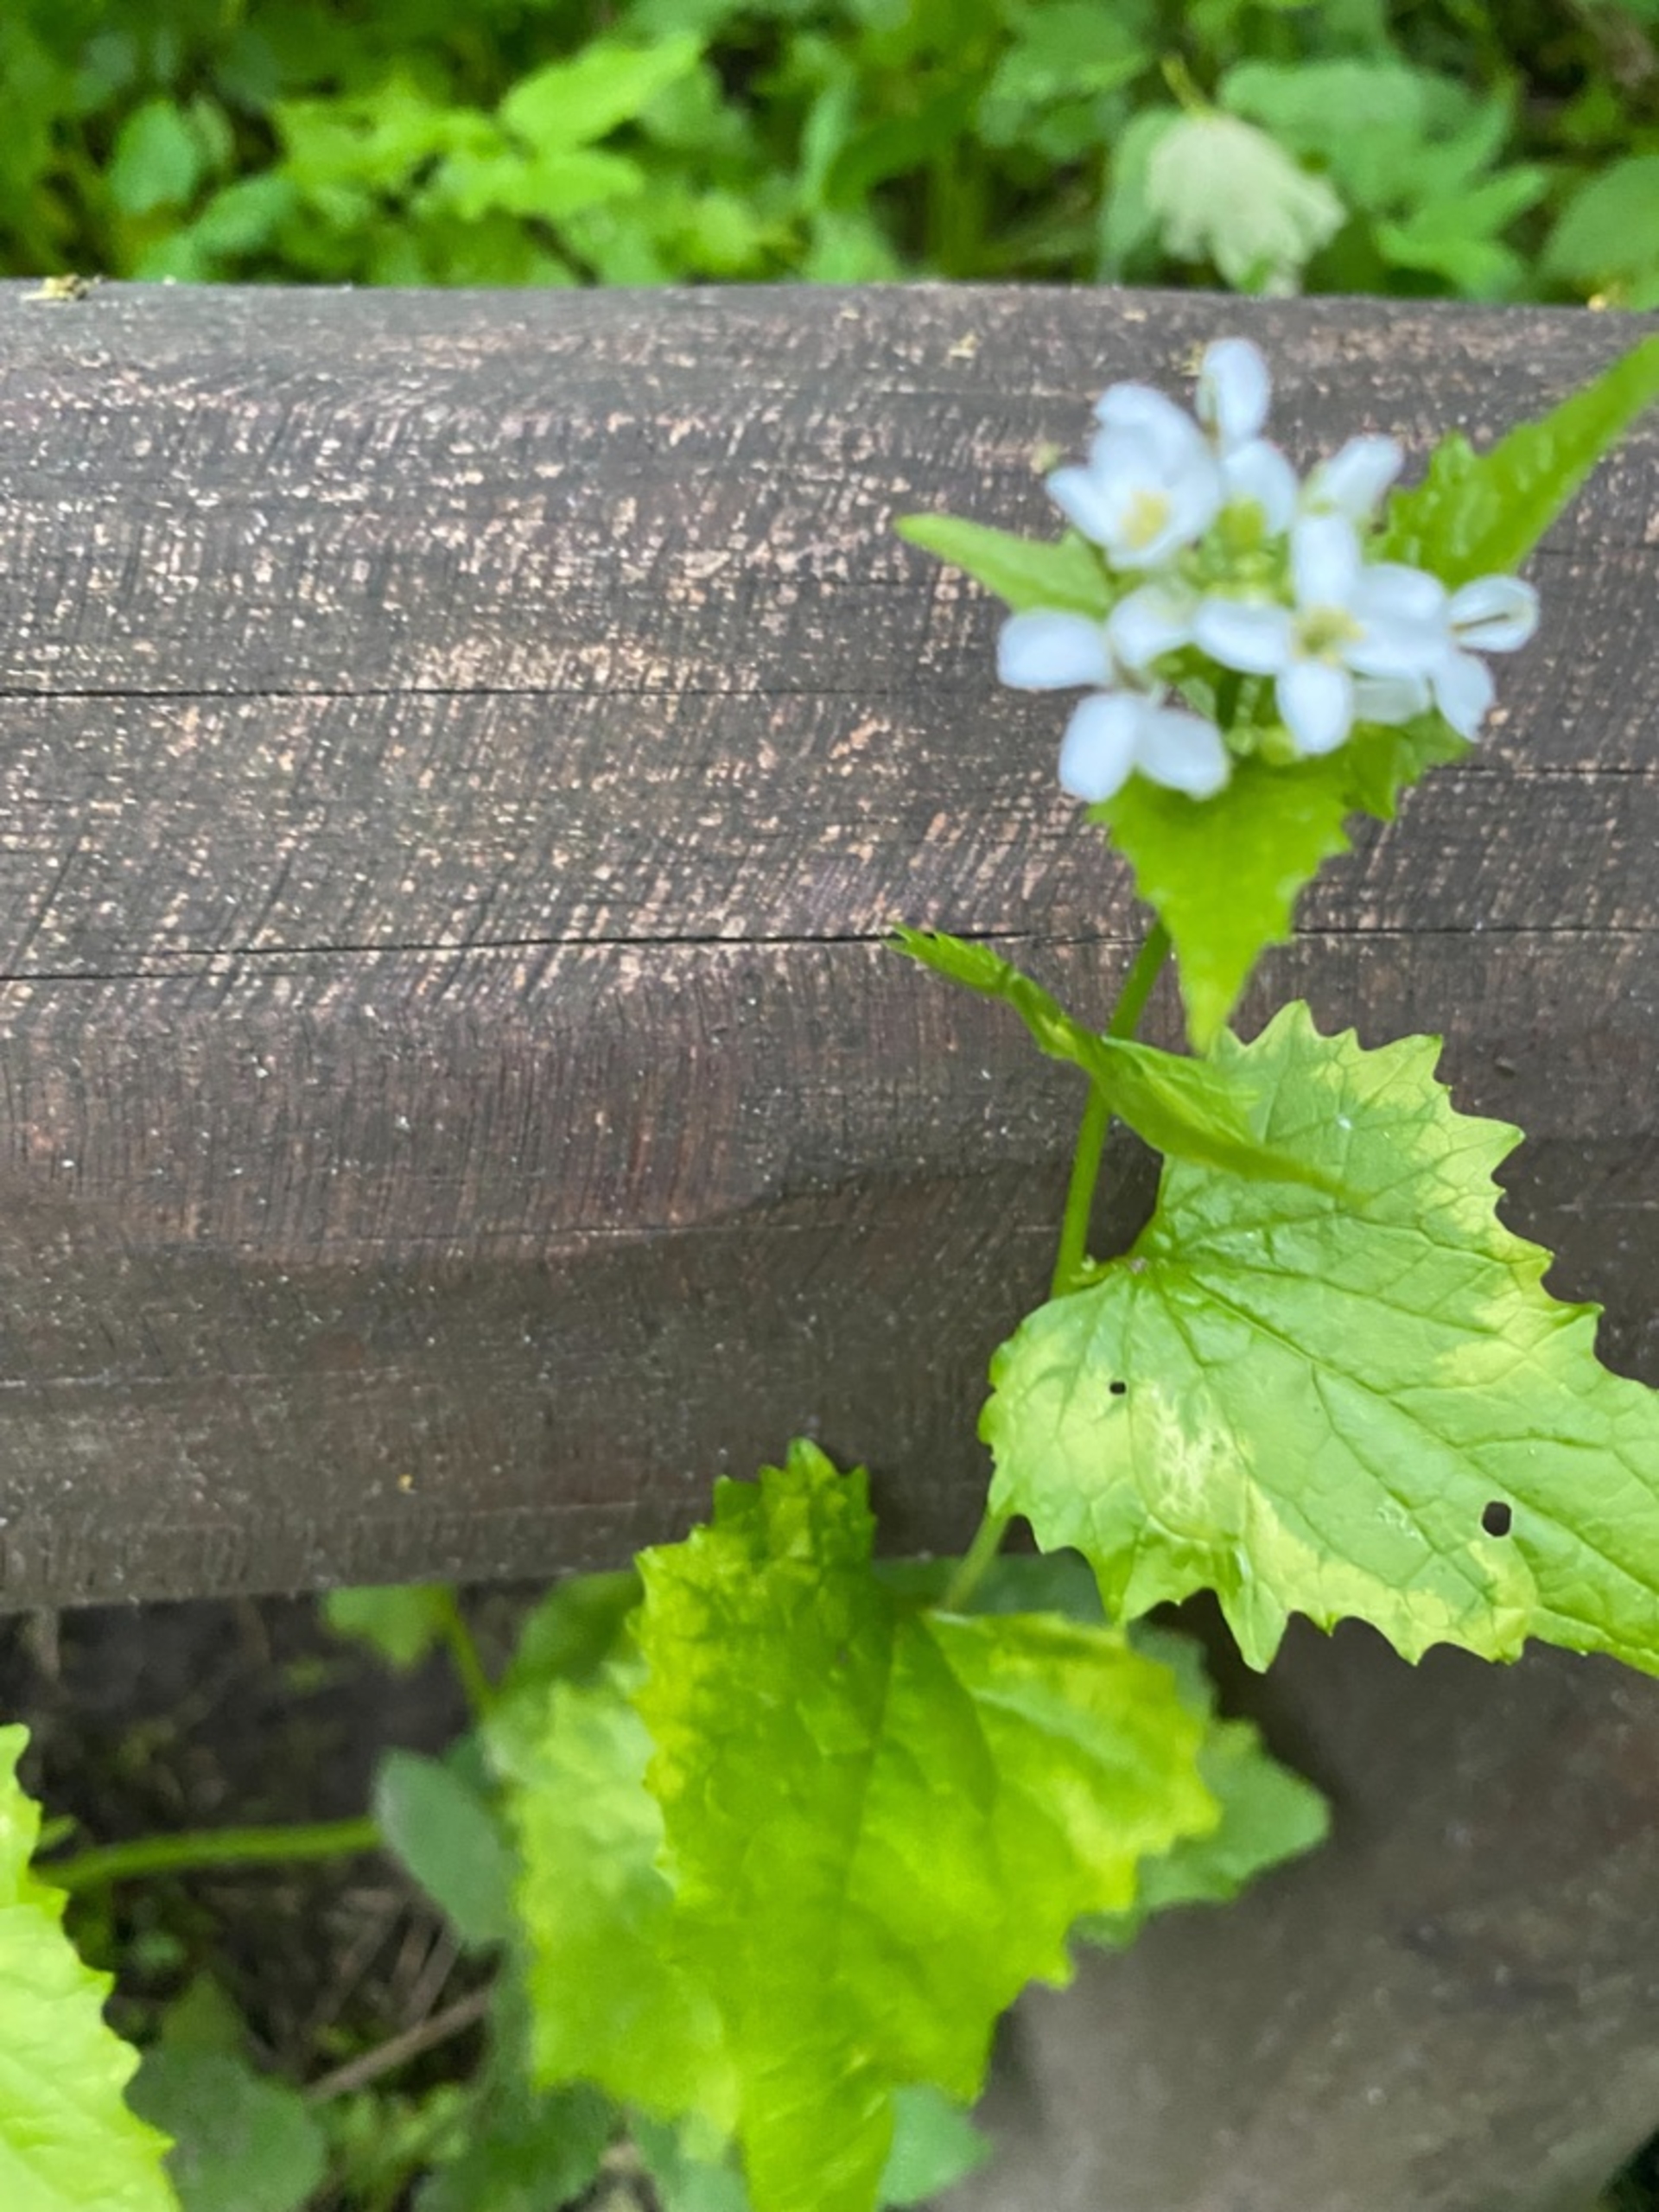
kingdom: Plantae
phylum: Tracheophyta
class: Magnoliopsida
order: Brassicales
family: Brassicaceae
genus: Alliaria
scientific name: Alliaria petiolata
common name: Løgkarse
